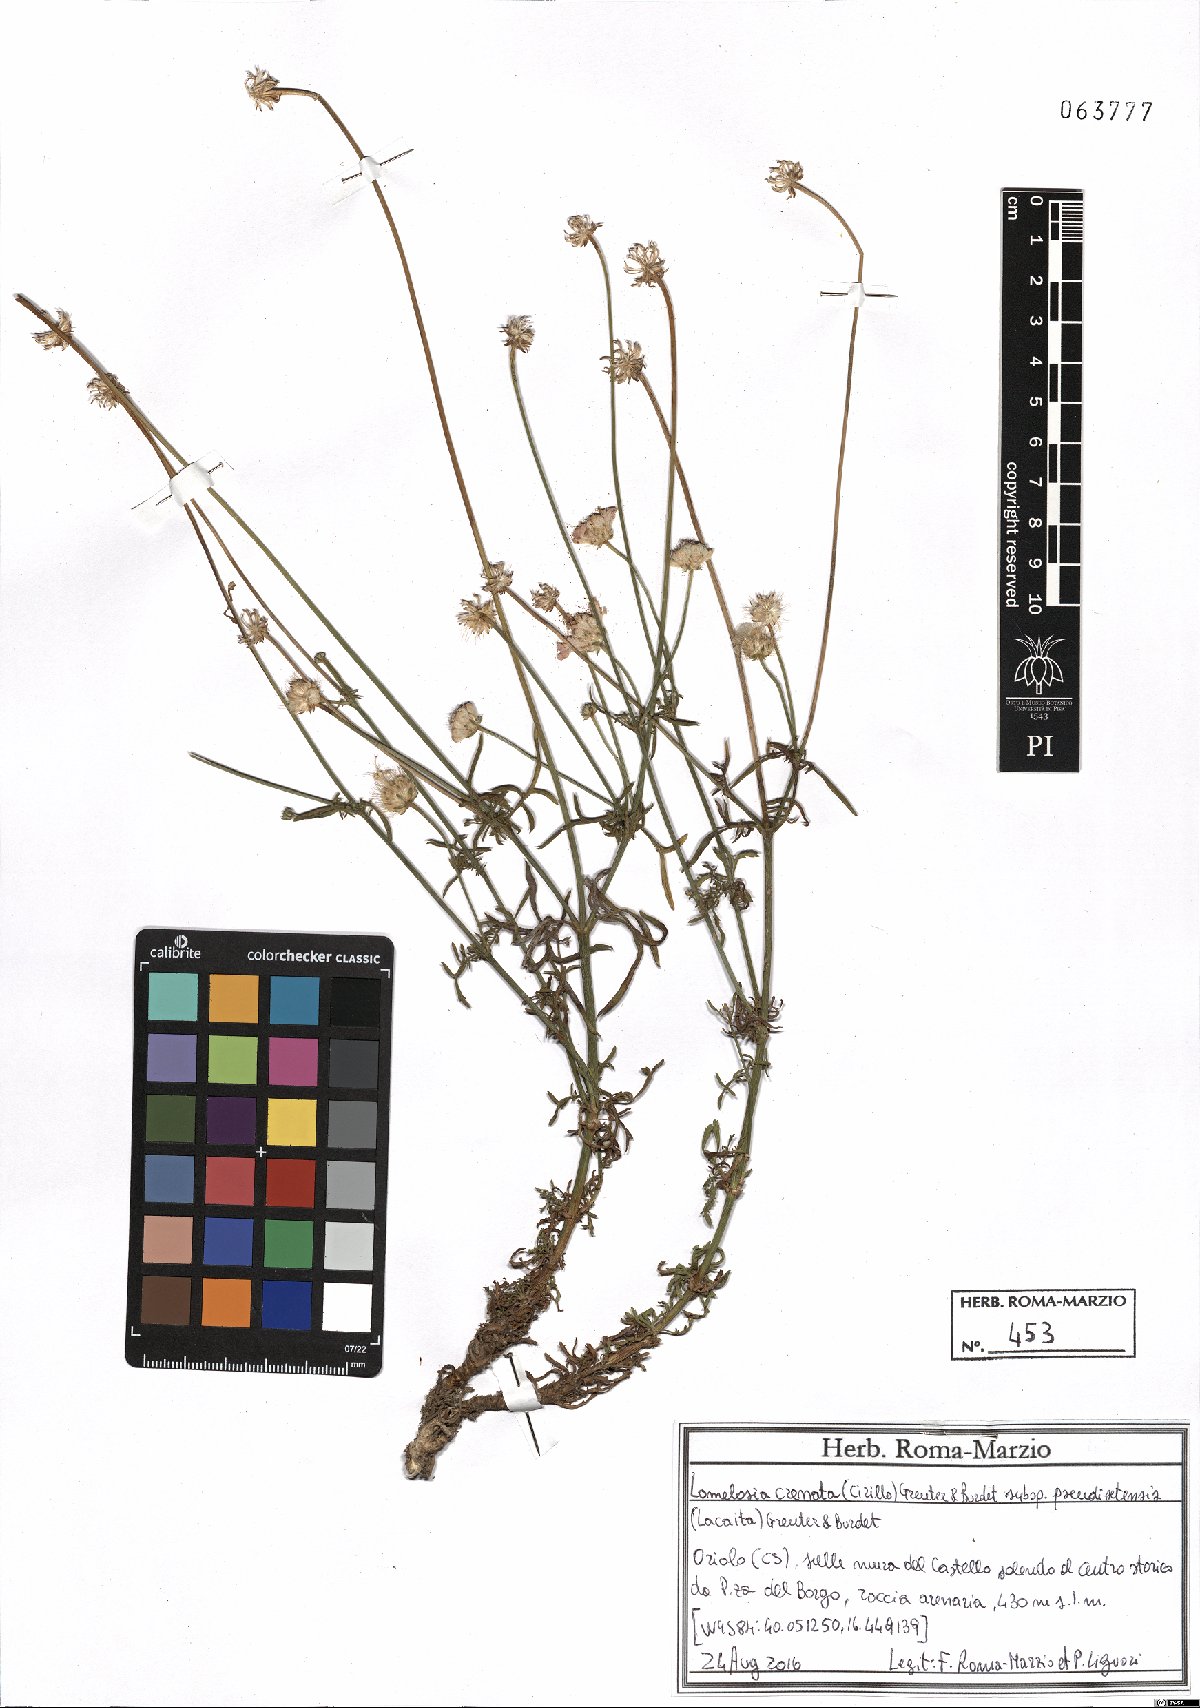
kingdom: Plantae
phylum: Tracheophyta
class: Magnoliopsida
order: Dipsacales
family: Caprifoliaceae
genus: Lomelosia
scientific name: Lomelosia pseudisetensis
